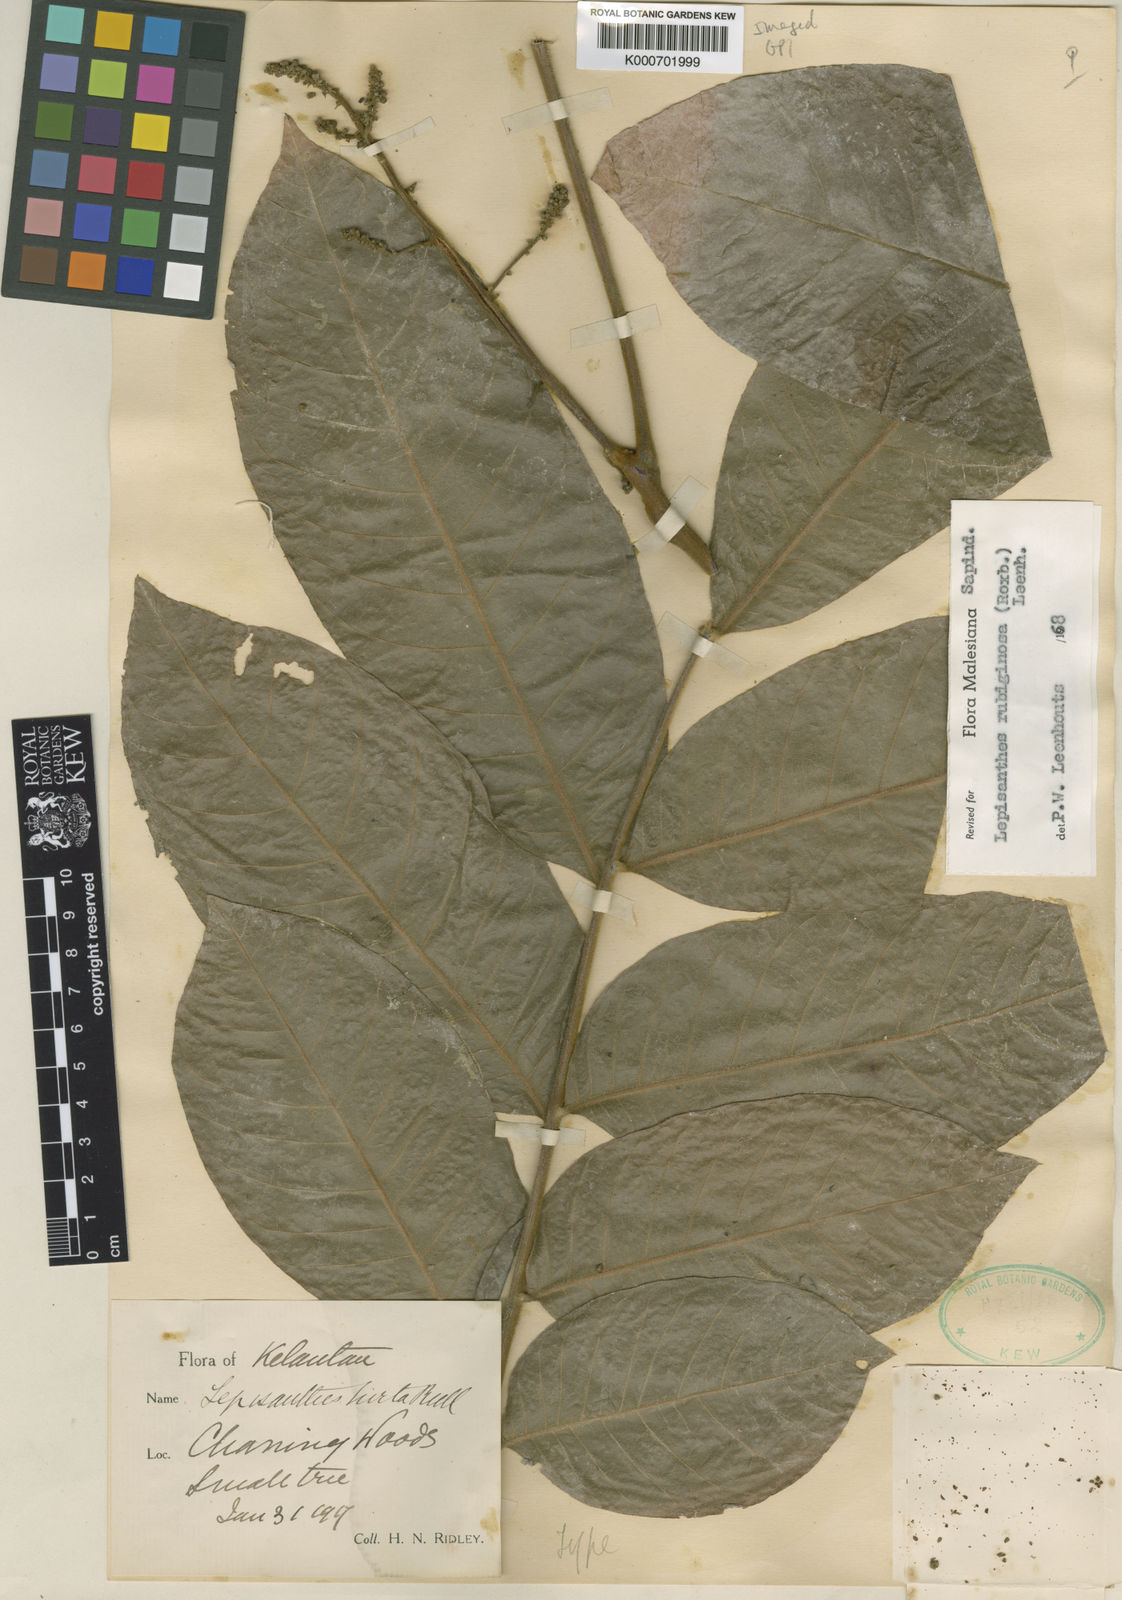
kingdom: Plantae
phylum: Tracheophyta
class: Magnoliopsida
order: Sapindales
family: Sapindaceae
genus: Lepisanthes
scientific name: Lepisanthes rubiginosa
